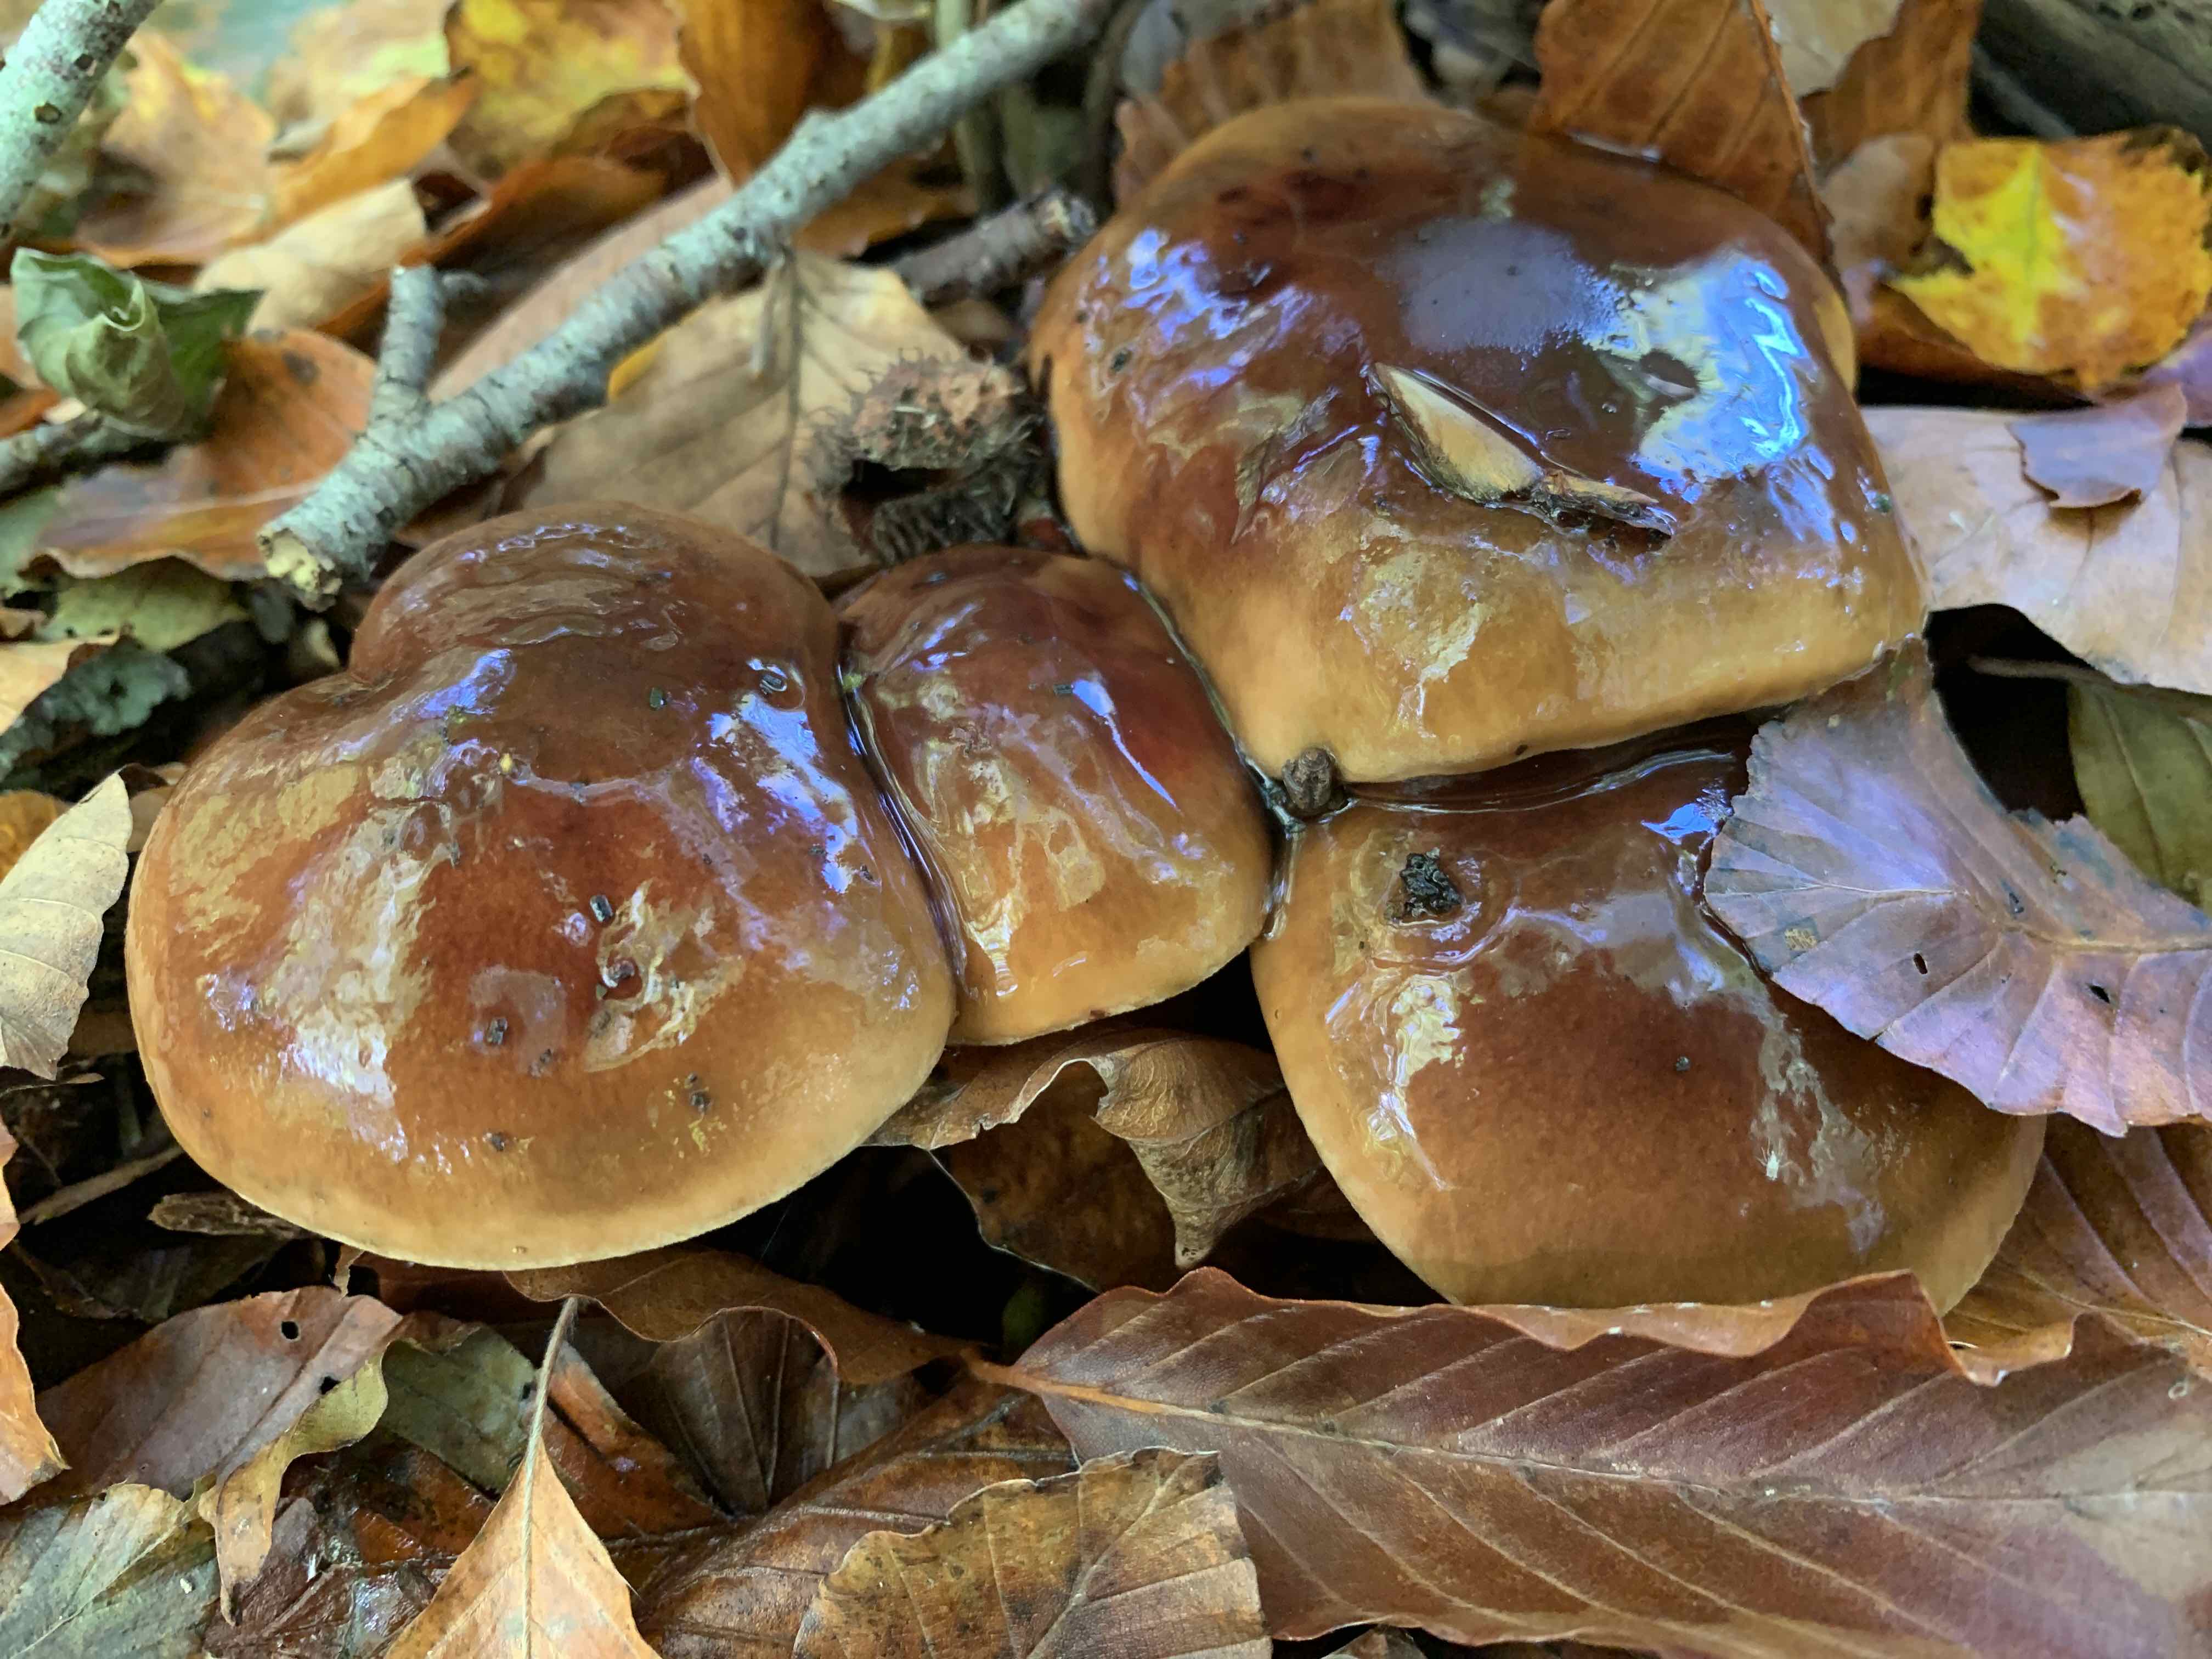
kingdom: Fungi
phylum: Basidiomycota
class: Agaricomycetes
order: Agaricales
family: Tricholomataceae
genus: Tricholoma
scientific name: Tricholoma ustale
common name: sveden ridderhat
